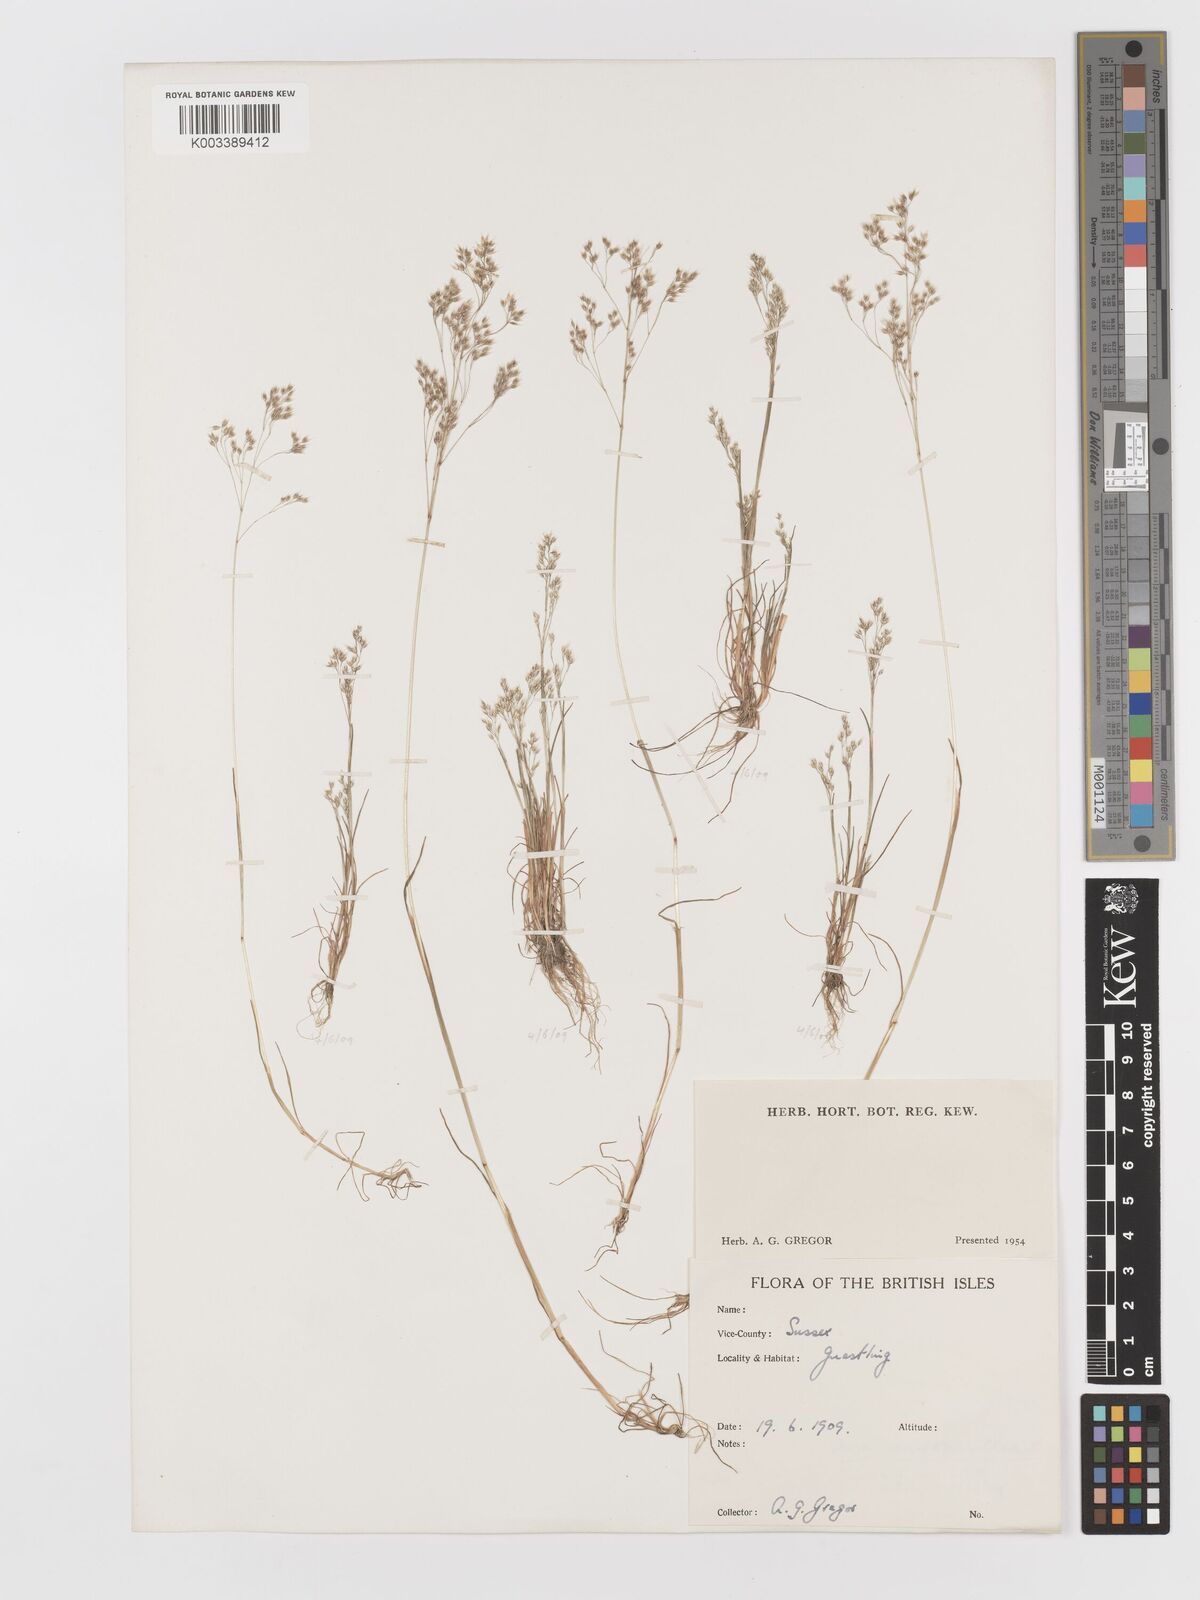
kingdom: Plantae
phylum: Tracheophyta
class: Liliopsida
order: Poales
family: Poaceae
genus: Aira
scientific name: Aira caryophyllea
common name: Silver hairgrass
